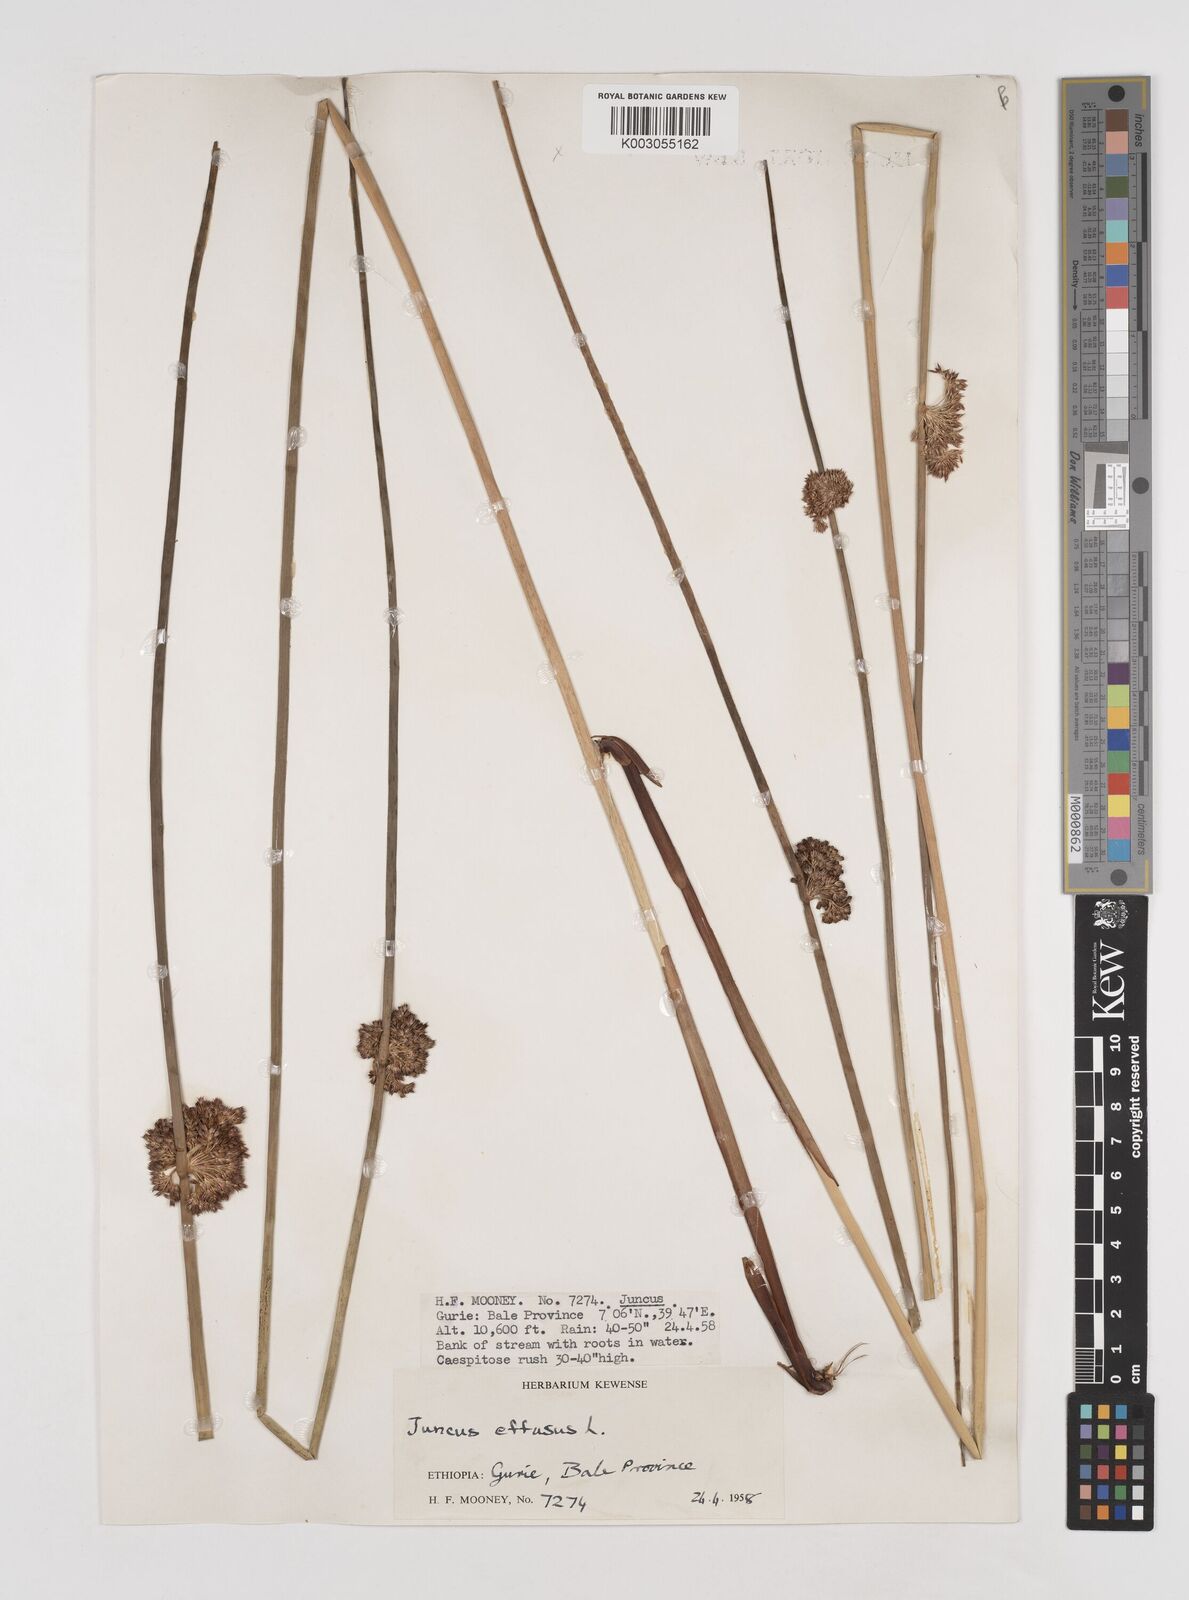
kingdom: Plantae
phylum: Tracheophyta
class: Liliopsida
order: Poales
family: Juncaceae
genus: Juncus
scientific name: Juncus effusus
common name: Soft rush
